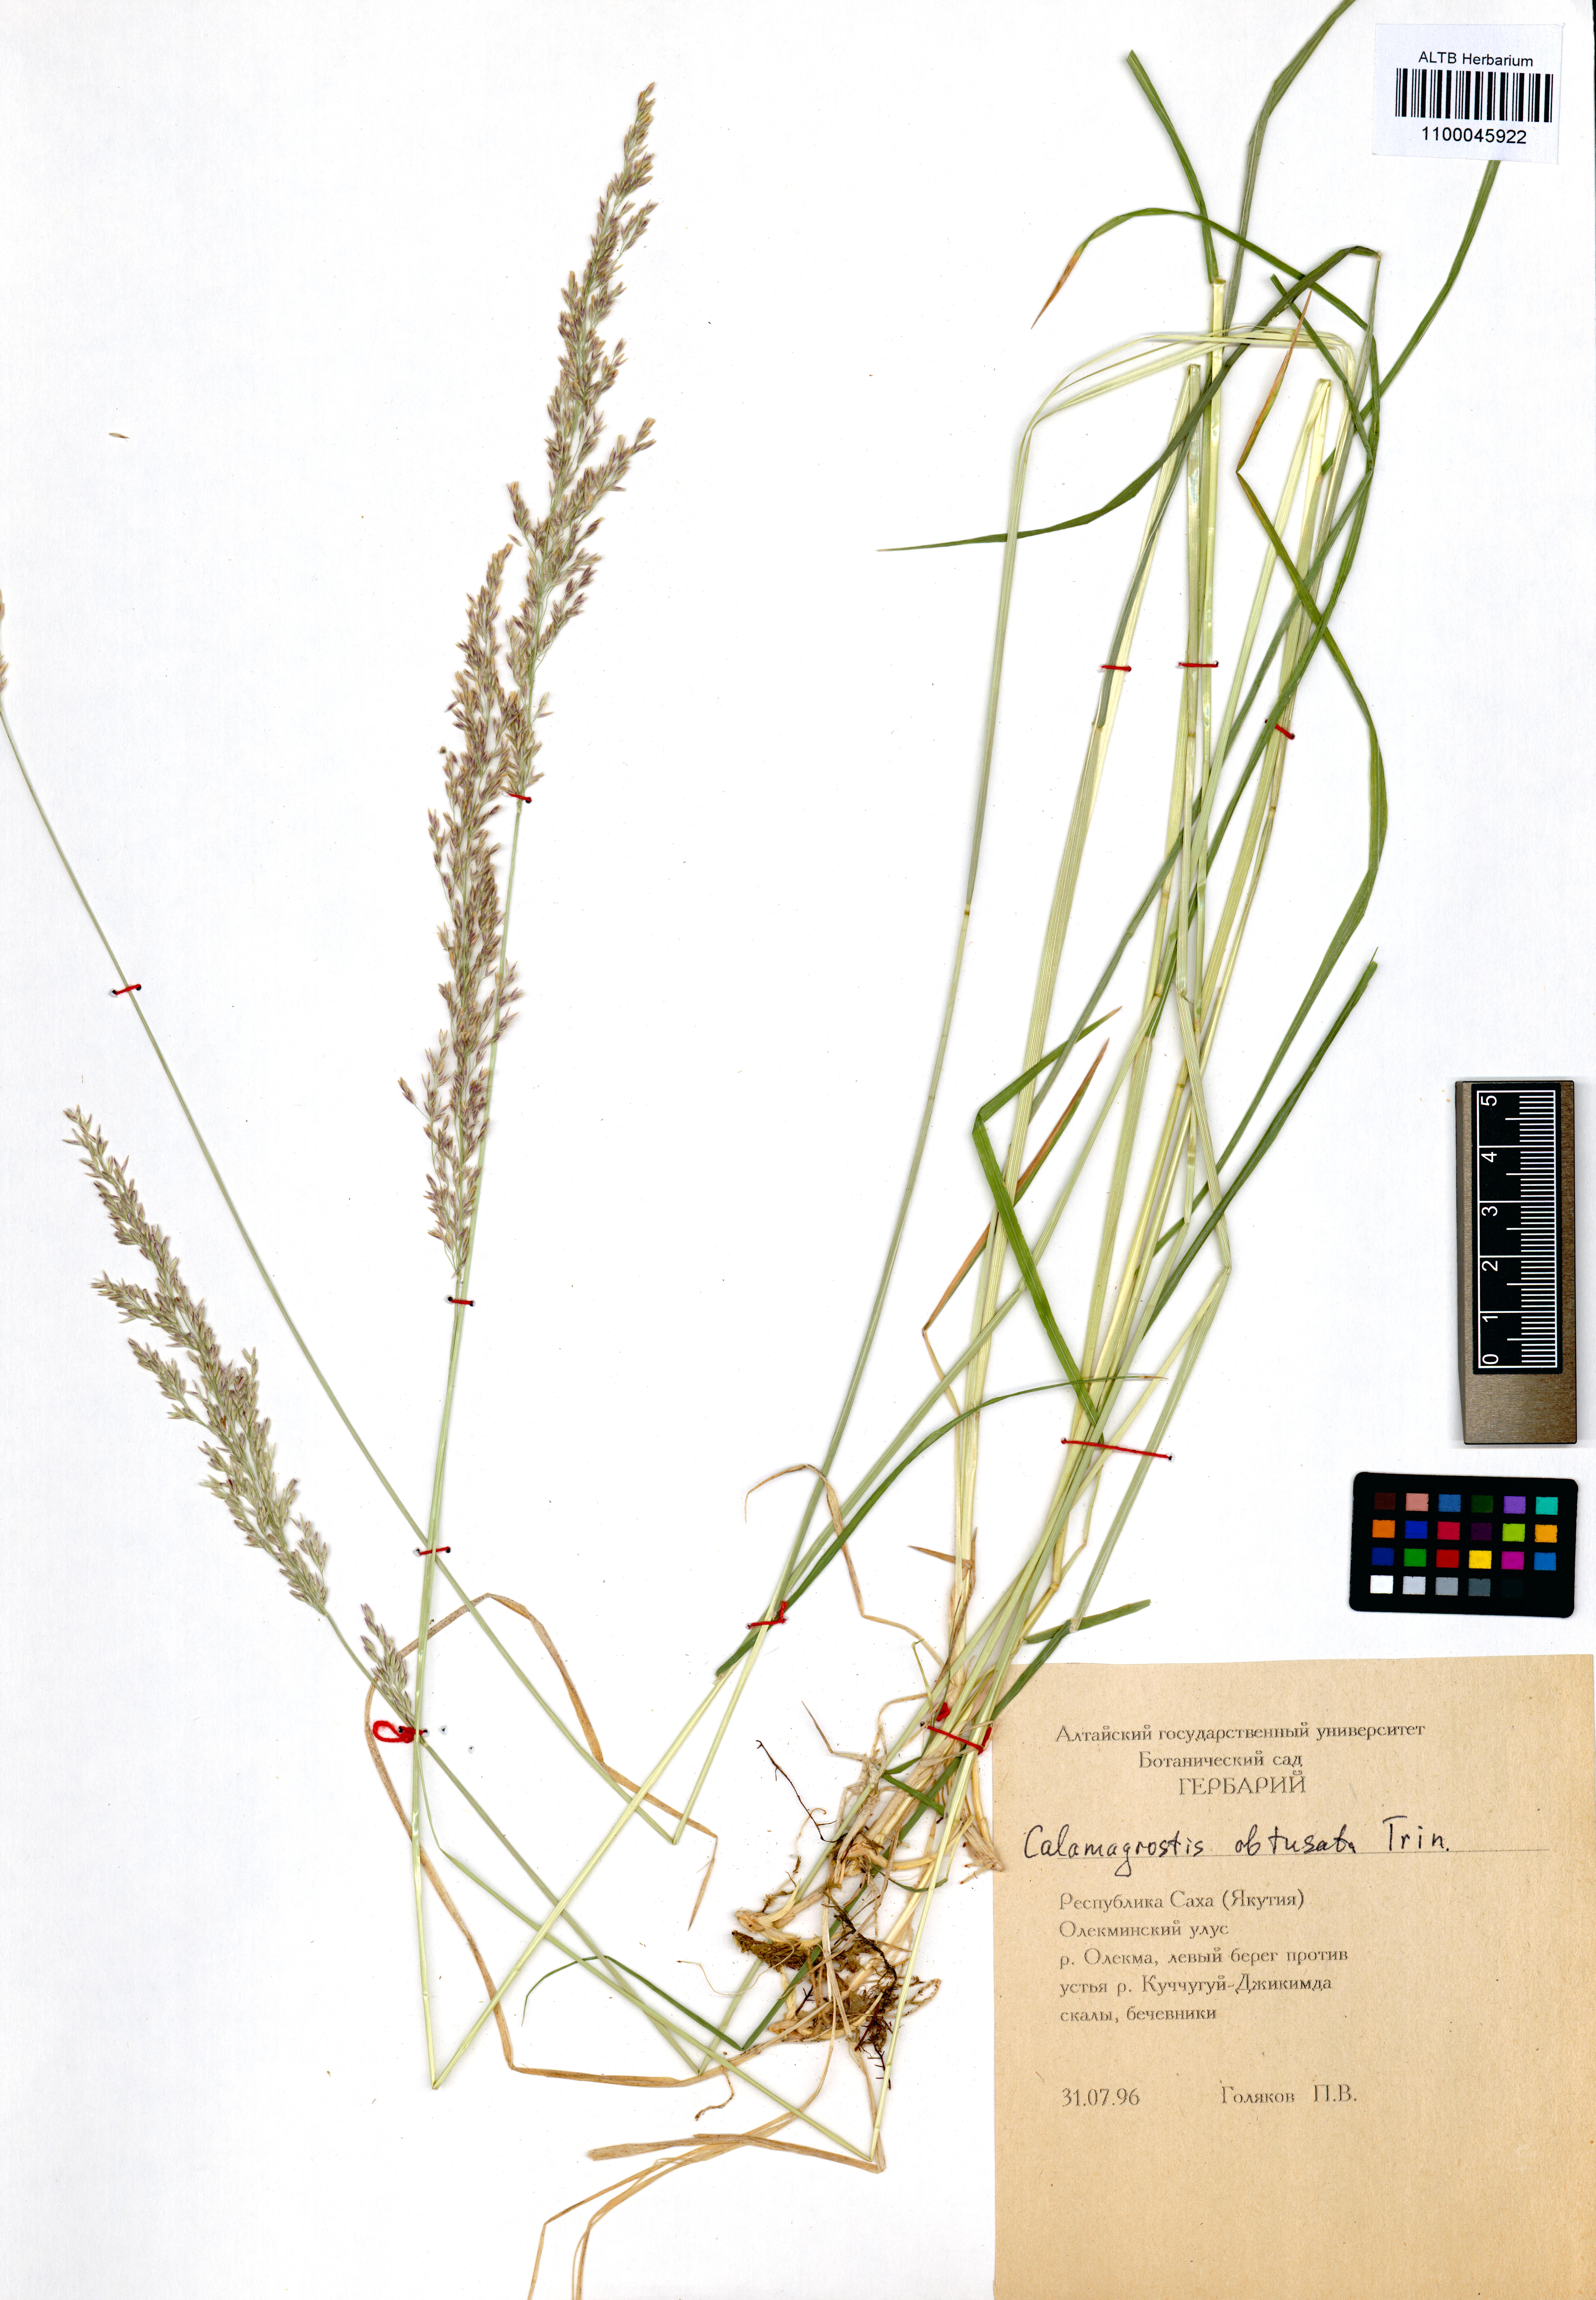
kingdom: Plantae
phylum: Tracheophyta
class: Liliopsida
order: Poales
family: Poaceae
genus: Calamagrostis
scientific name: Calamagrostis obtusata
